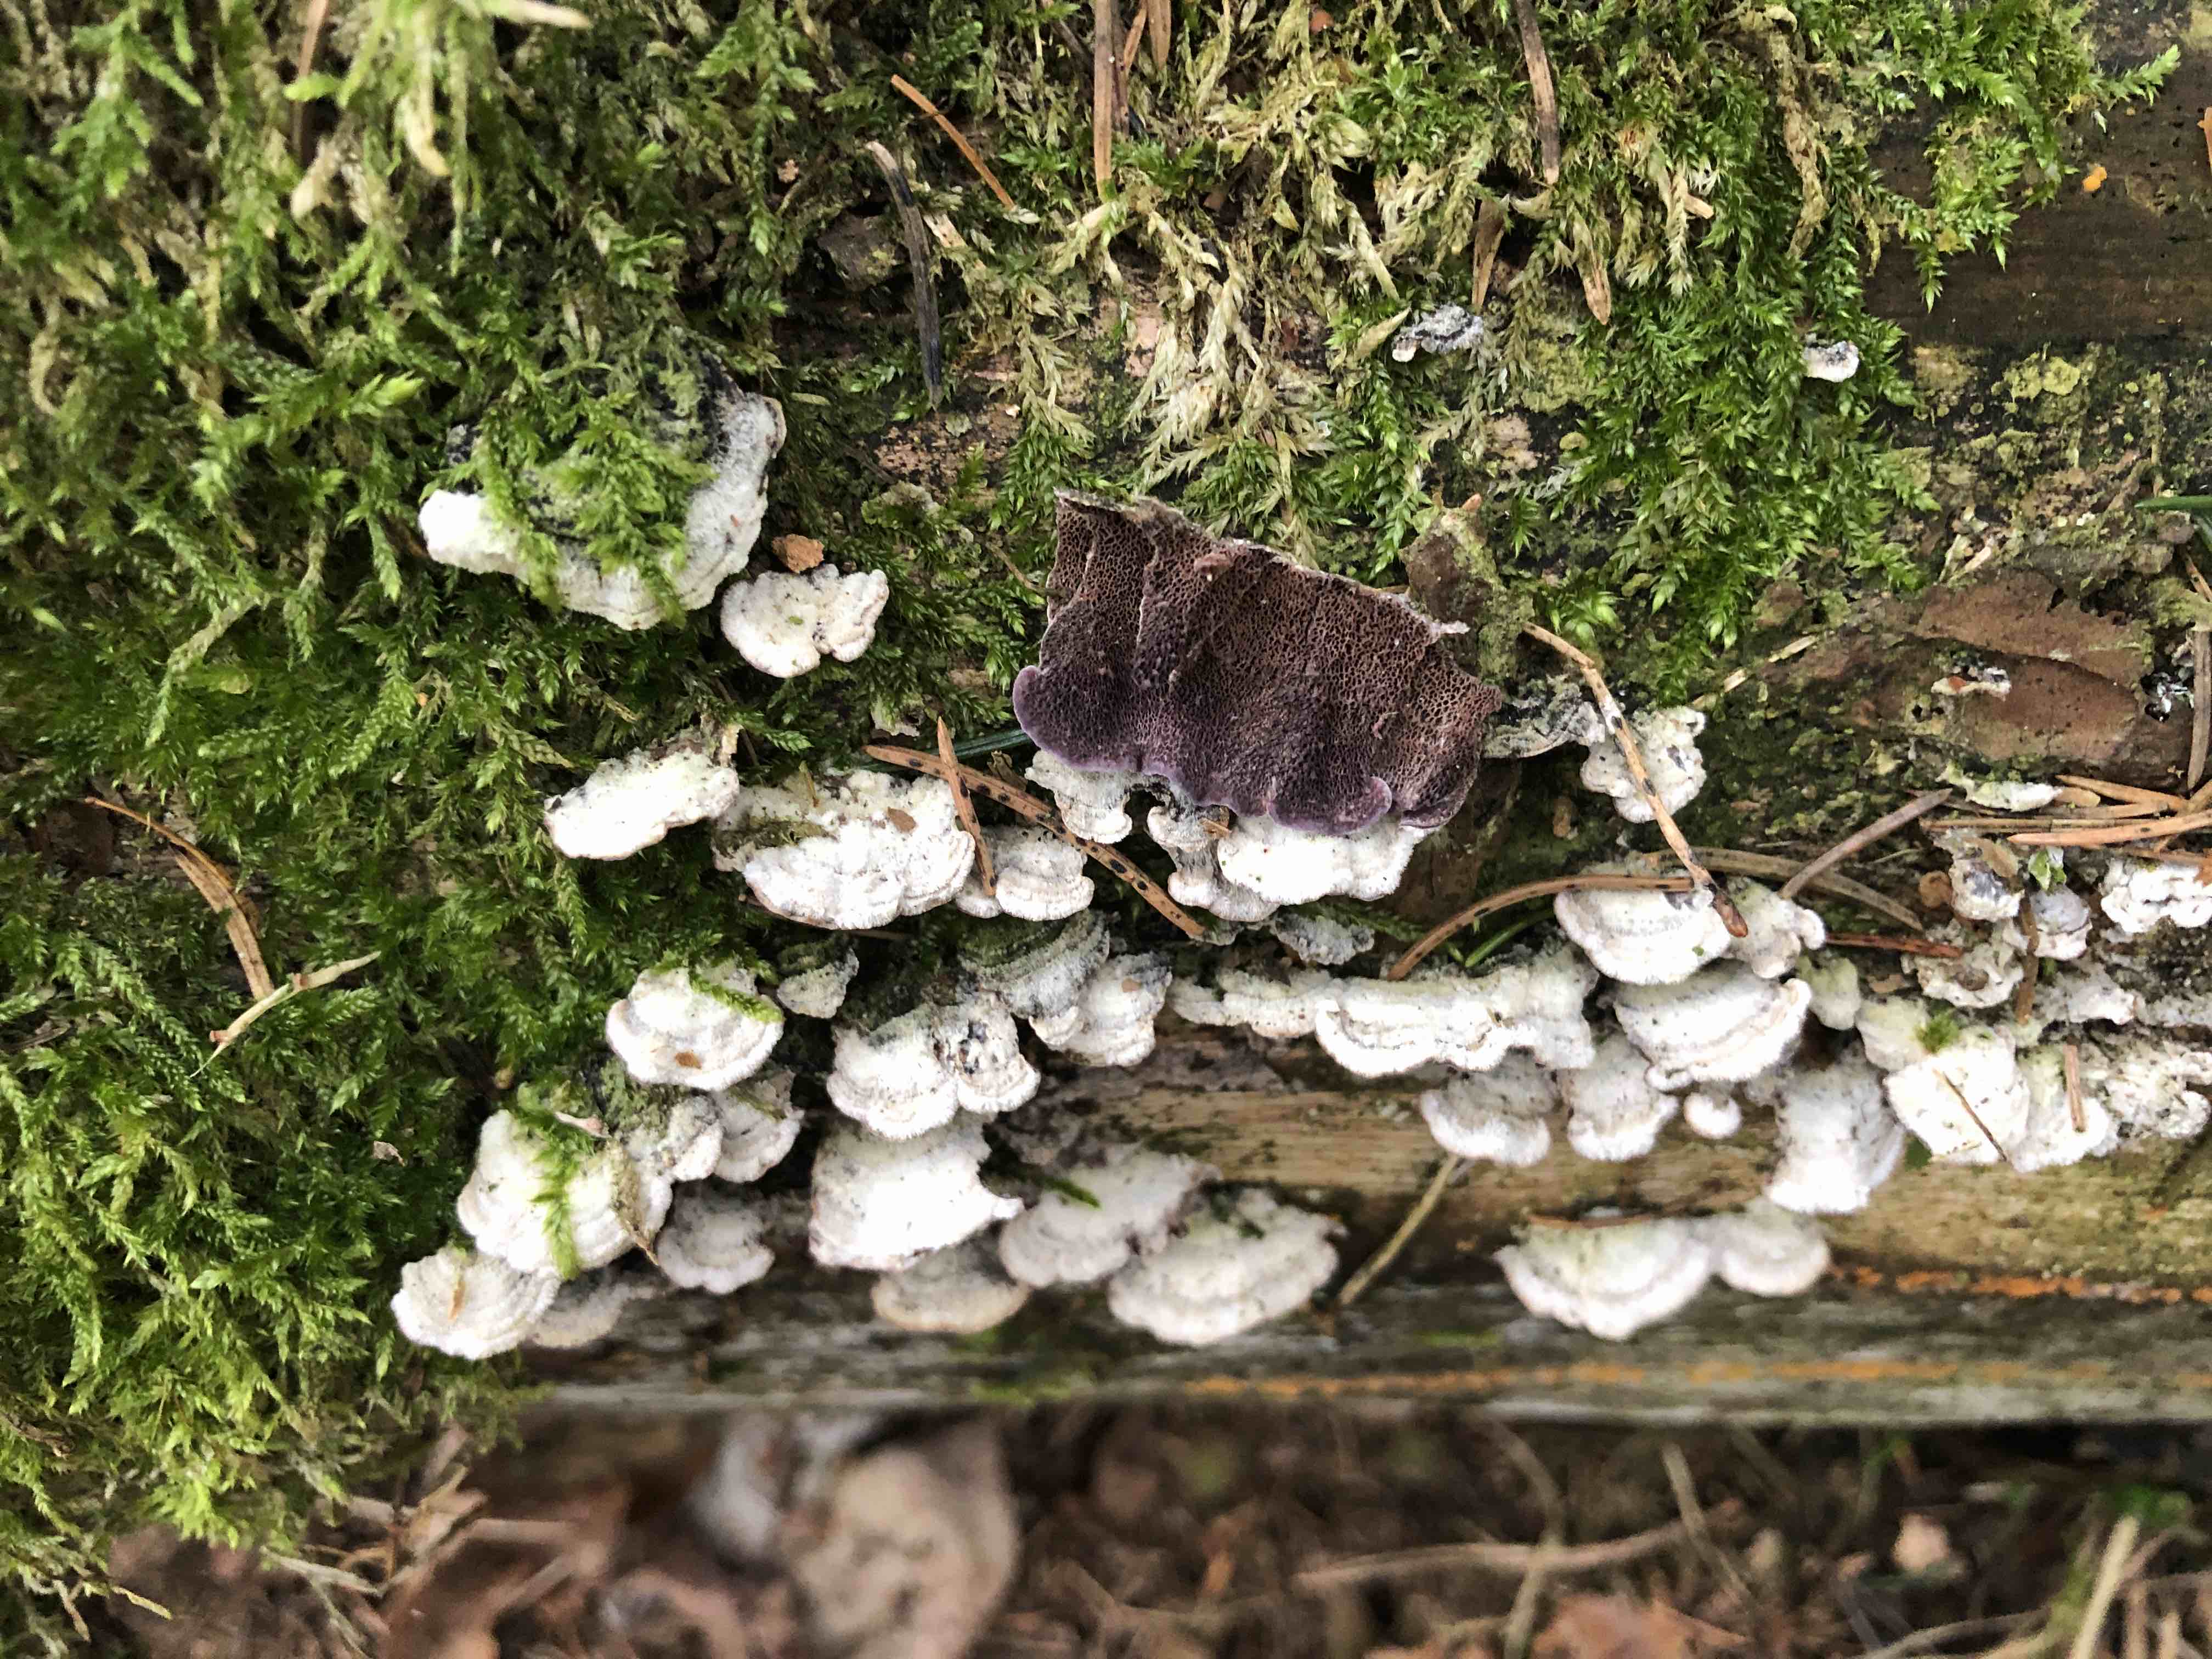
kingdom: Fungi
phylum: Basidiomycota
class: Agaricomycetes
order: Hymenochaetales
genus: Trichaptum
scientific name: Trichaptum abietinum
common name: almindelig violporesvamp
